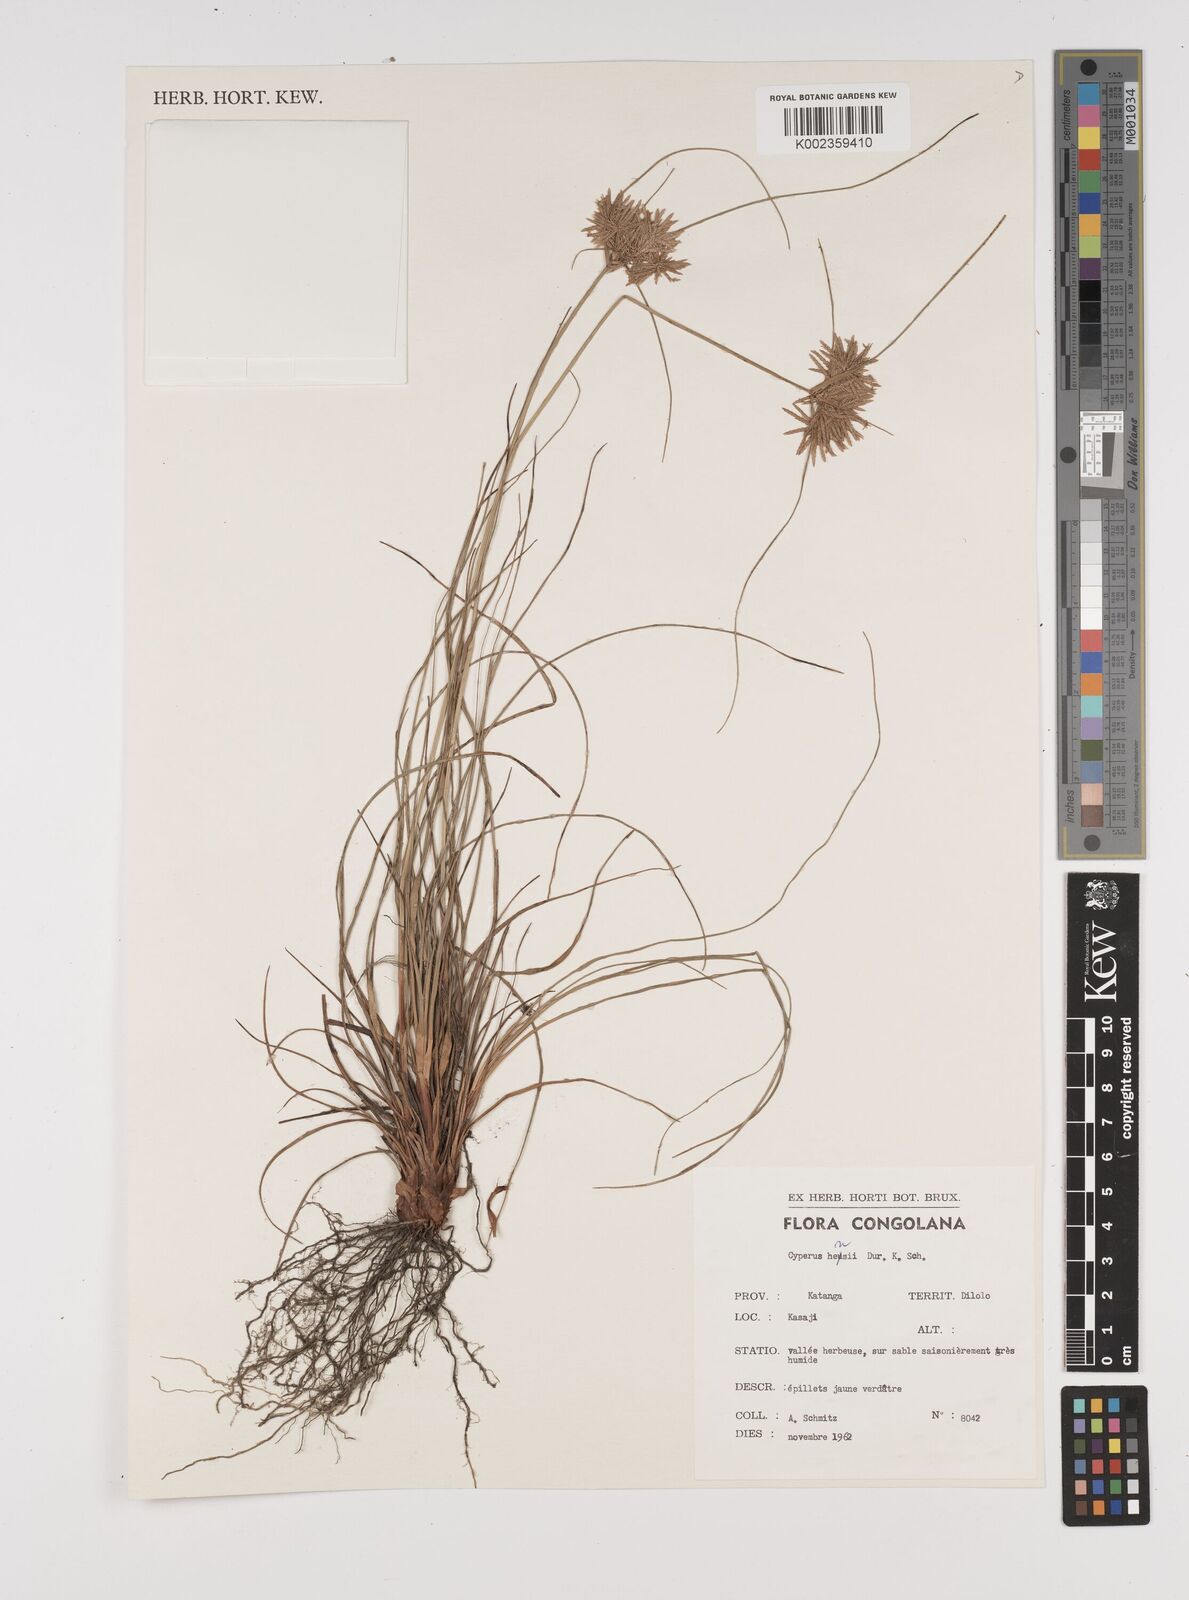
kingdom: Plantae
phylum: Tracheophyta
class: Liliopsida
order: Poales
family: Cyperaceae
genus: Cyperus
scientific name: Cyperus hensii
